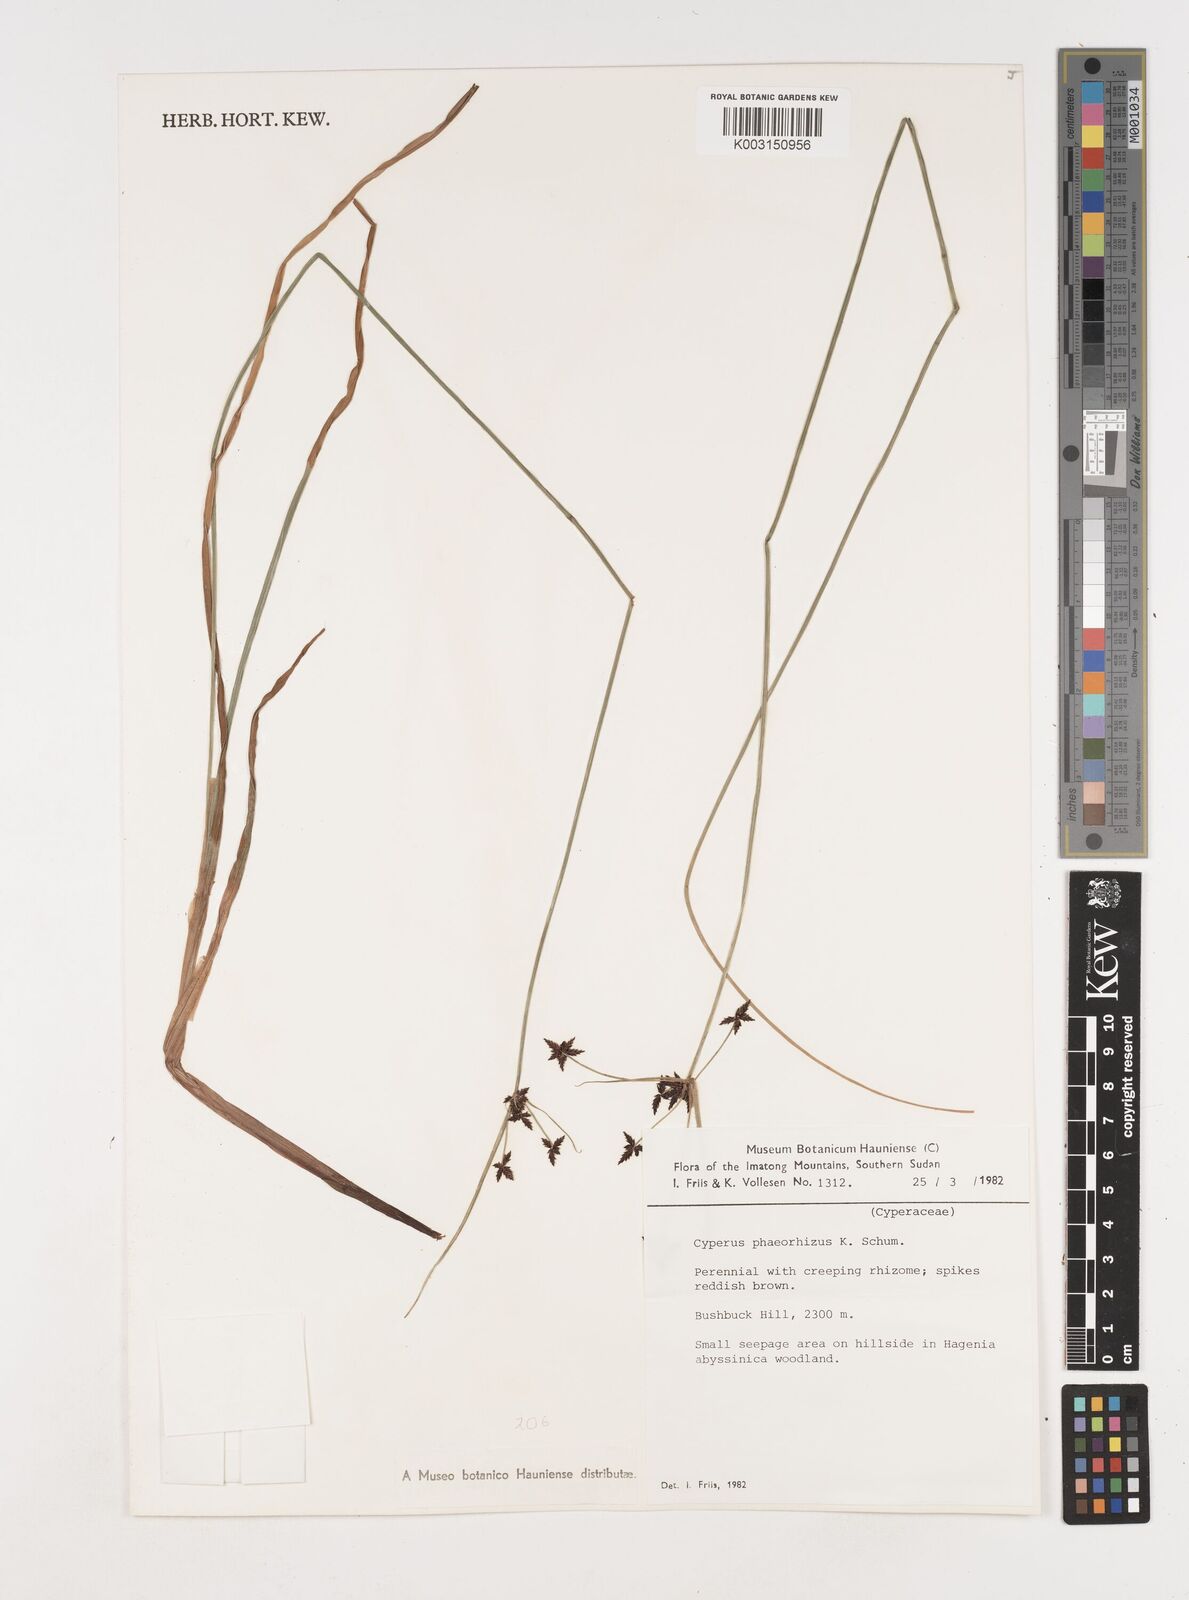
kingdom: Plantae
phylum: Tracheophyta
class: Liliopsida
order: Poales
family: Cyperaceae
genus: Cyperus
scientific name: Cyperus haspan
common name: Haspan flatsedge
